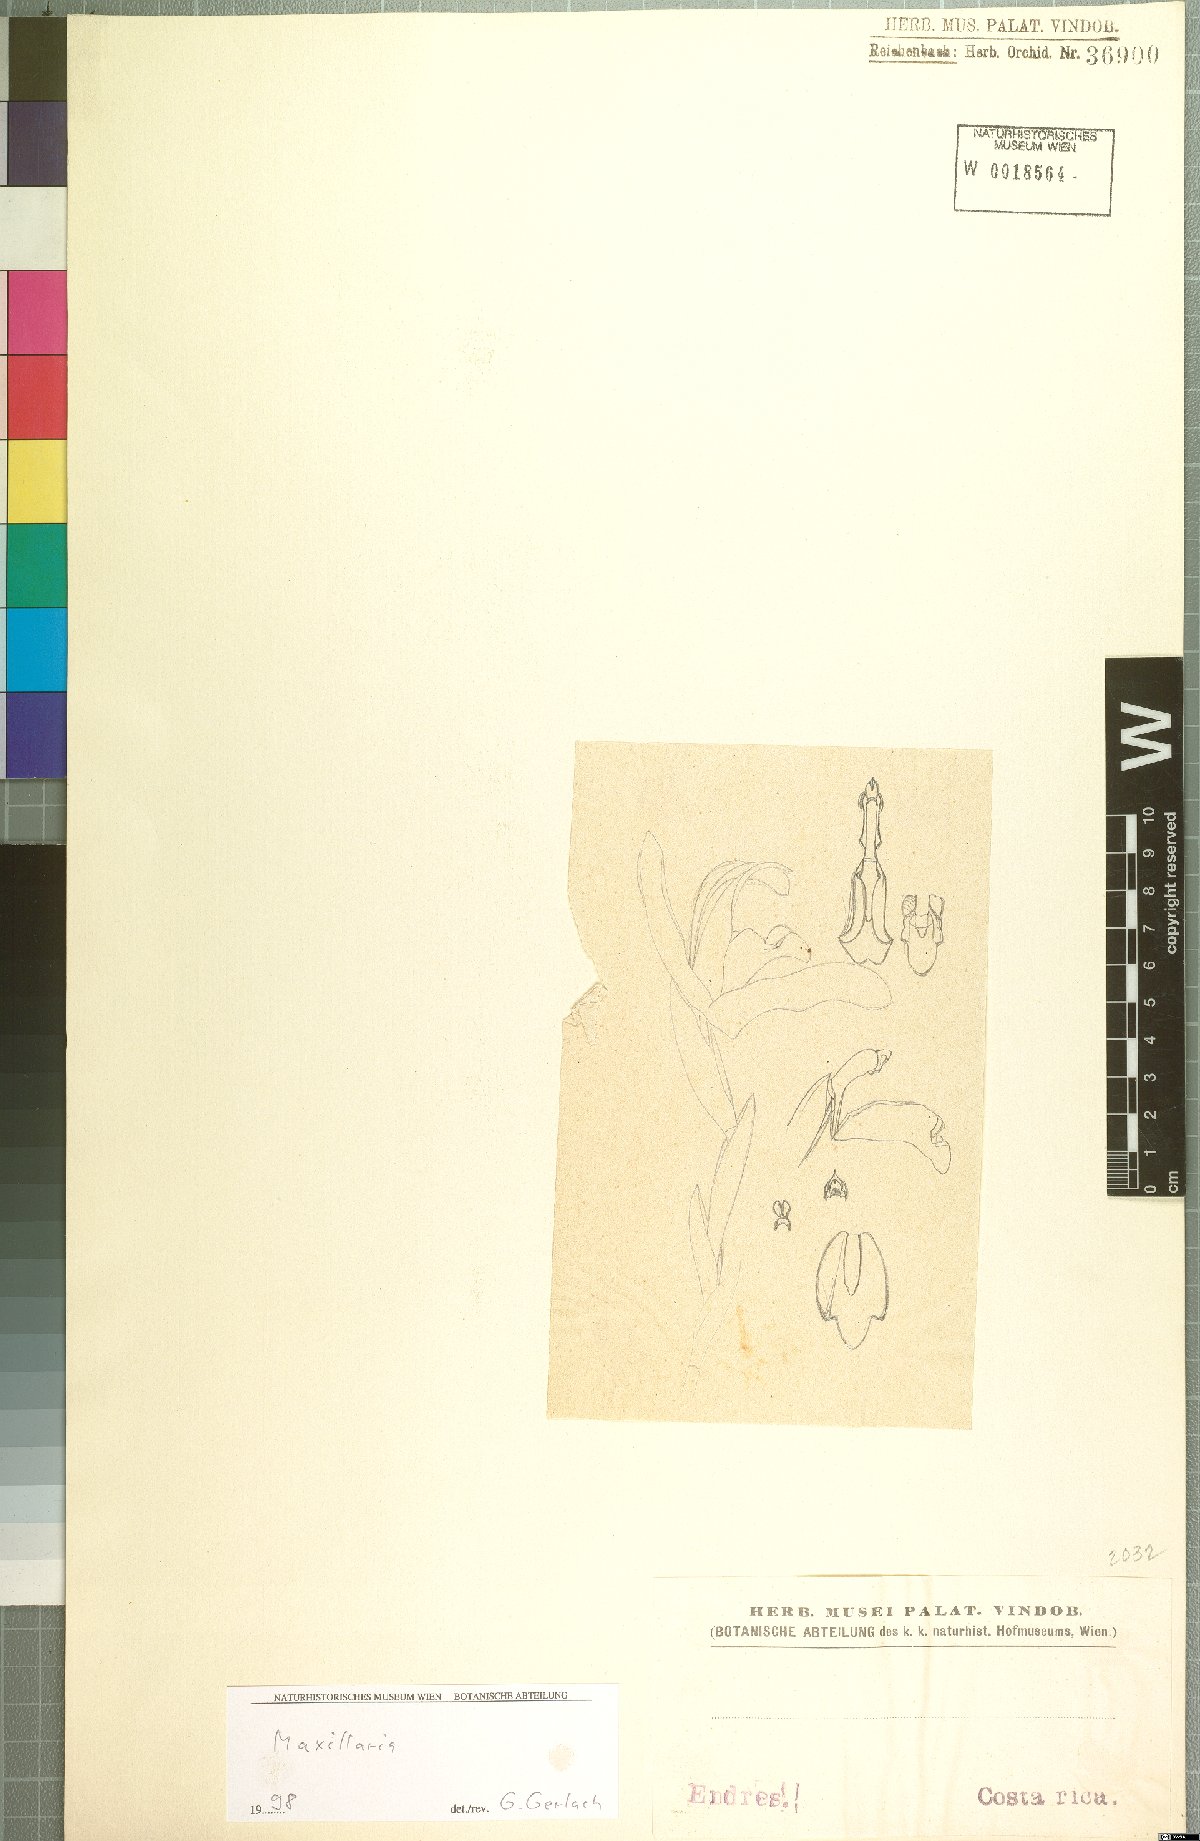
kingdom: Plantae
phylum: Tracheophyta
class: Liliopsida
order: Asparagales
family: Orchidaceae
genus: Maxillaria
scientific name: Maxillaria
